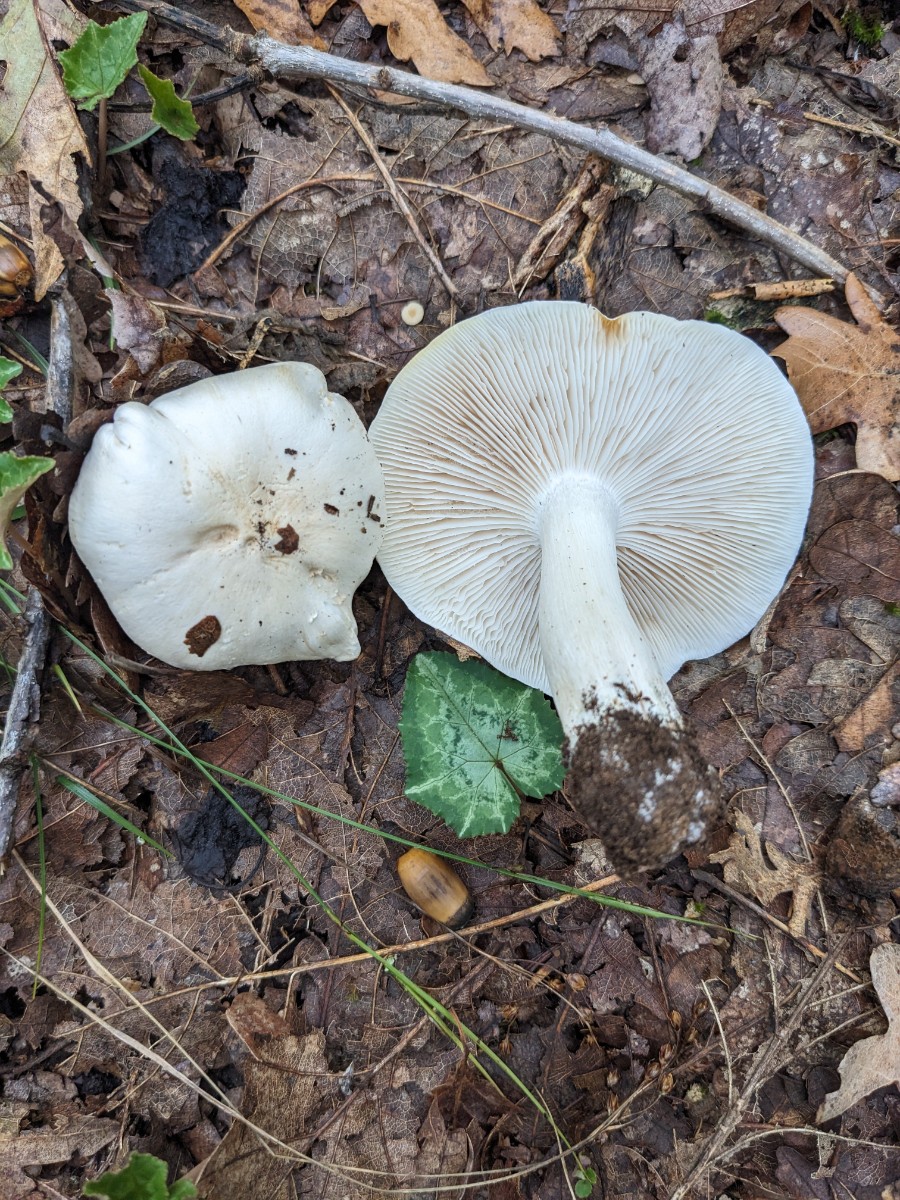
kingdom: Fungi
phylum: Basidiomycota
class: Agaricomycetes
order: Agaricales
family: Tricholomataceae
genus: Tricholoma
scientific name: Tricholoma columbetta
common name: silke-ridderhat
